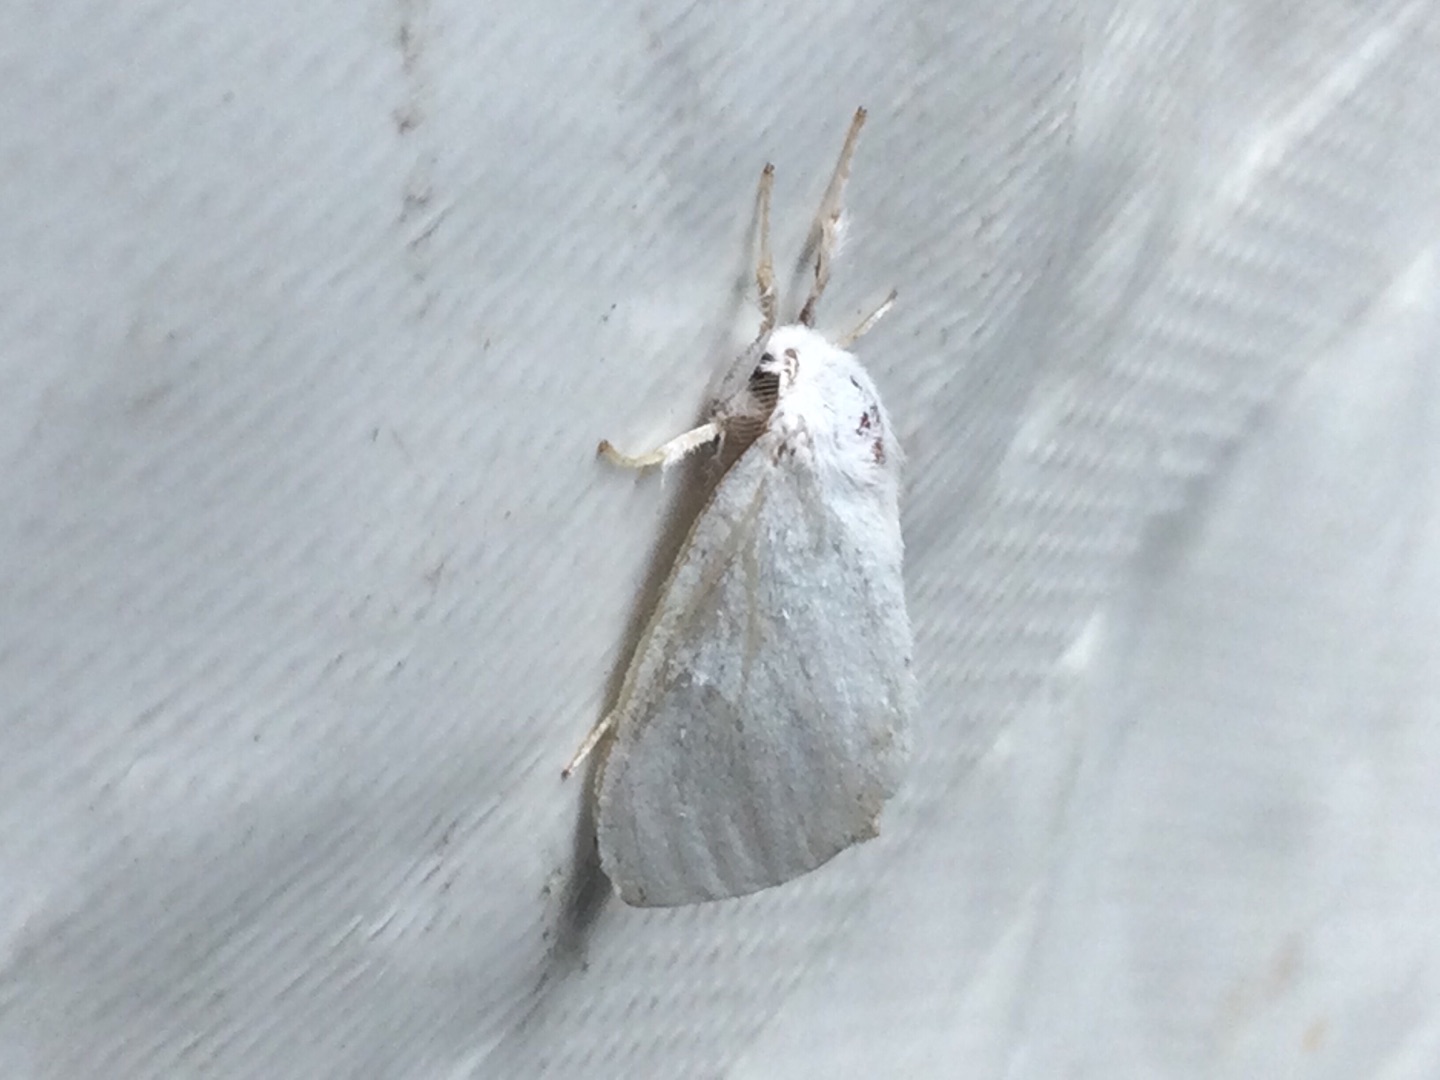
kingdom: Animalia
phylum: Arthropoda
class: Insecta
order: Lepidoptera
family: Erebidae
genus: Leucoma
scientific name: Leucoma salicis
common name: Atlaskspinder
